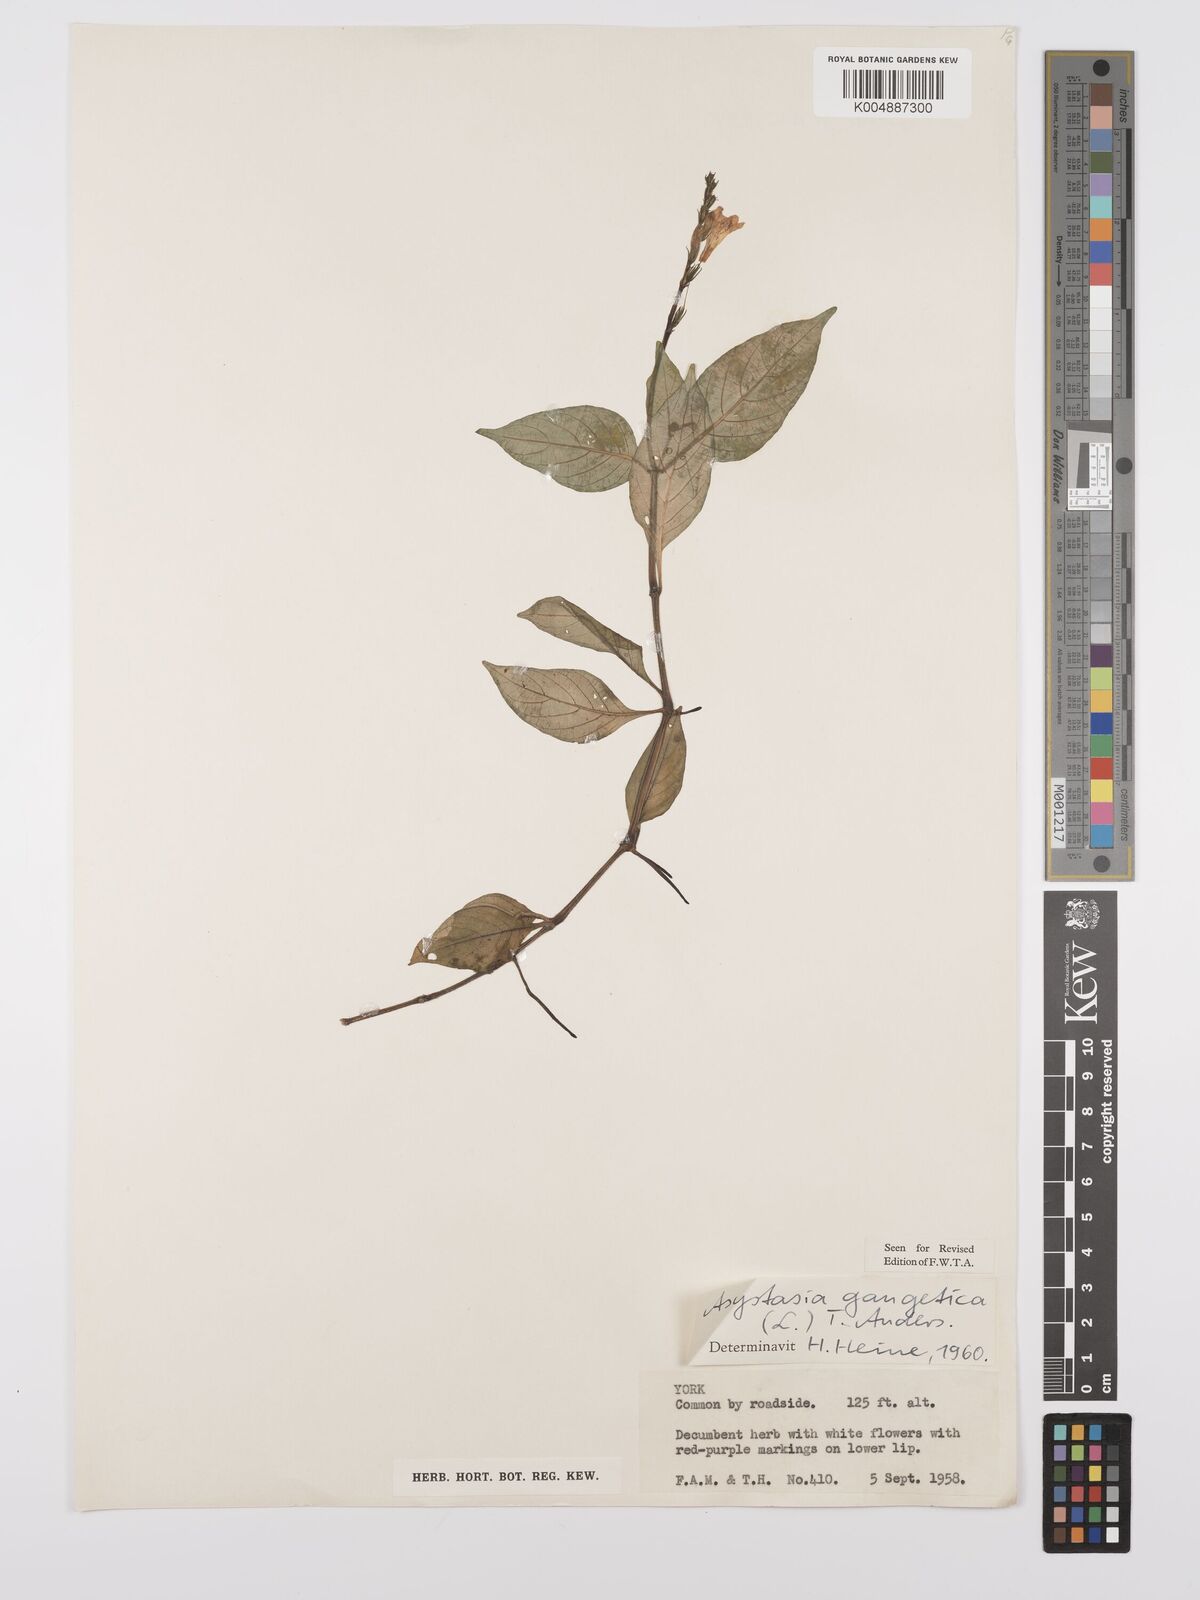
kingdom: Plantae
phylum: Tracheophyta
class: Magnoliopsida
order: Lamiales
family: Acanthaceae
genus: Asystasia
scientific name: Asystasia gangetica
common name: Chinese violet
